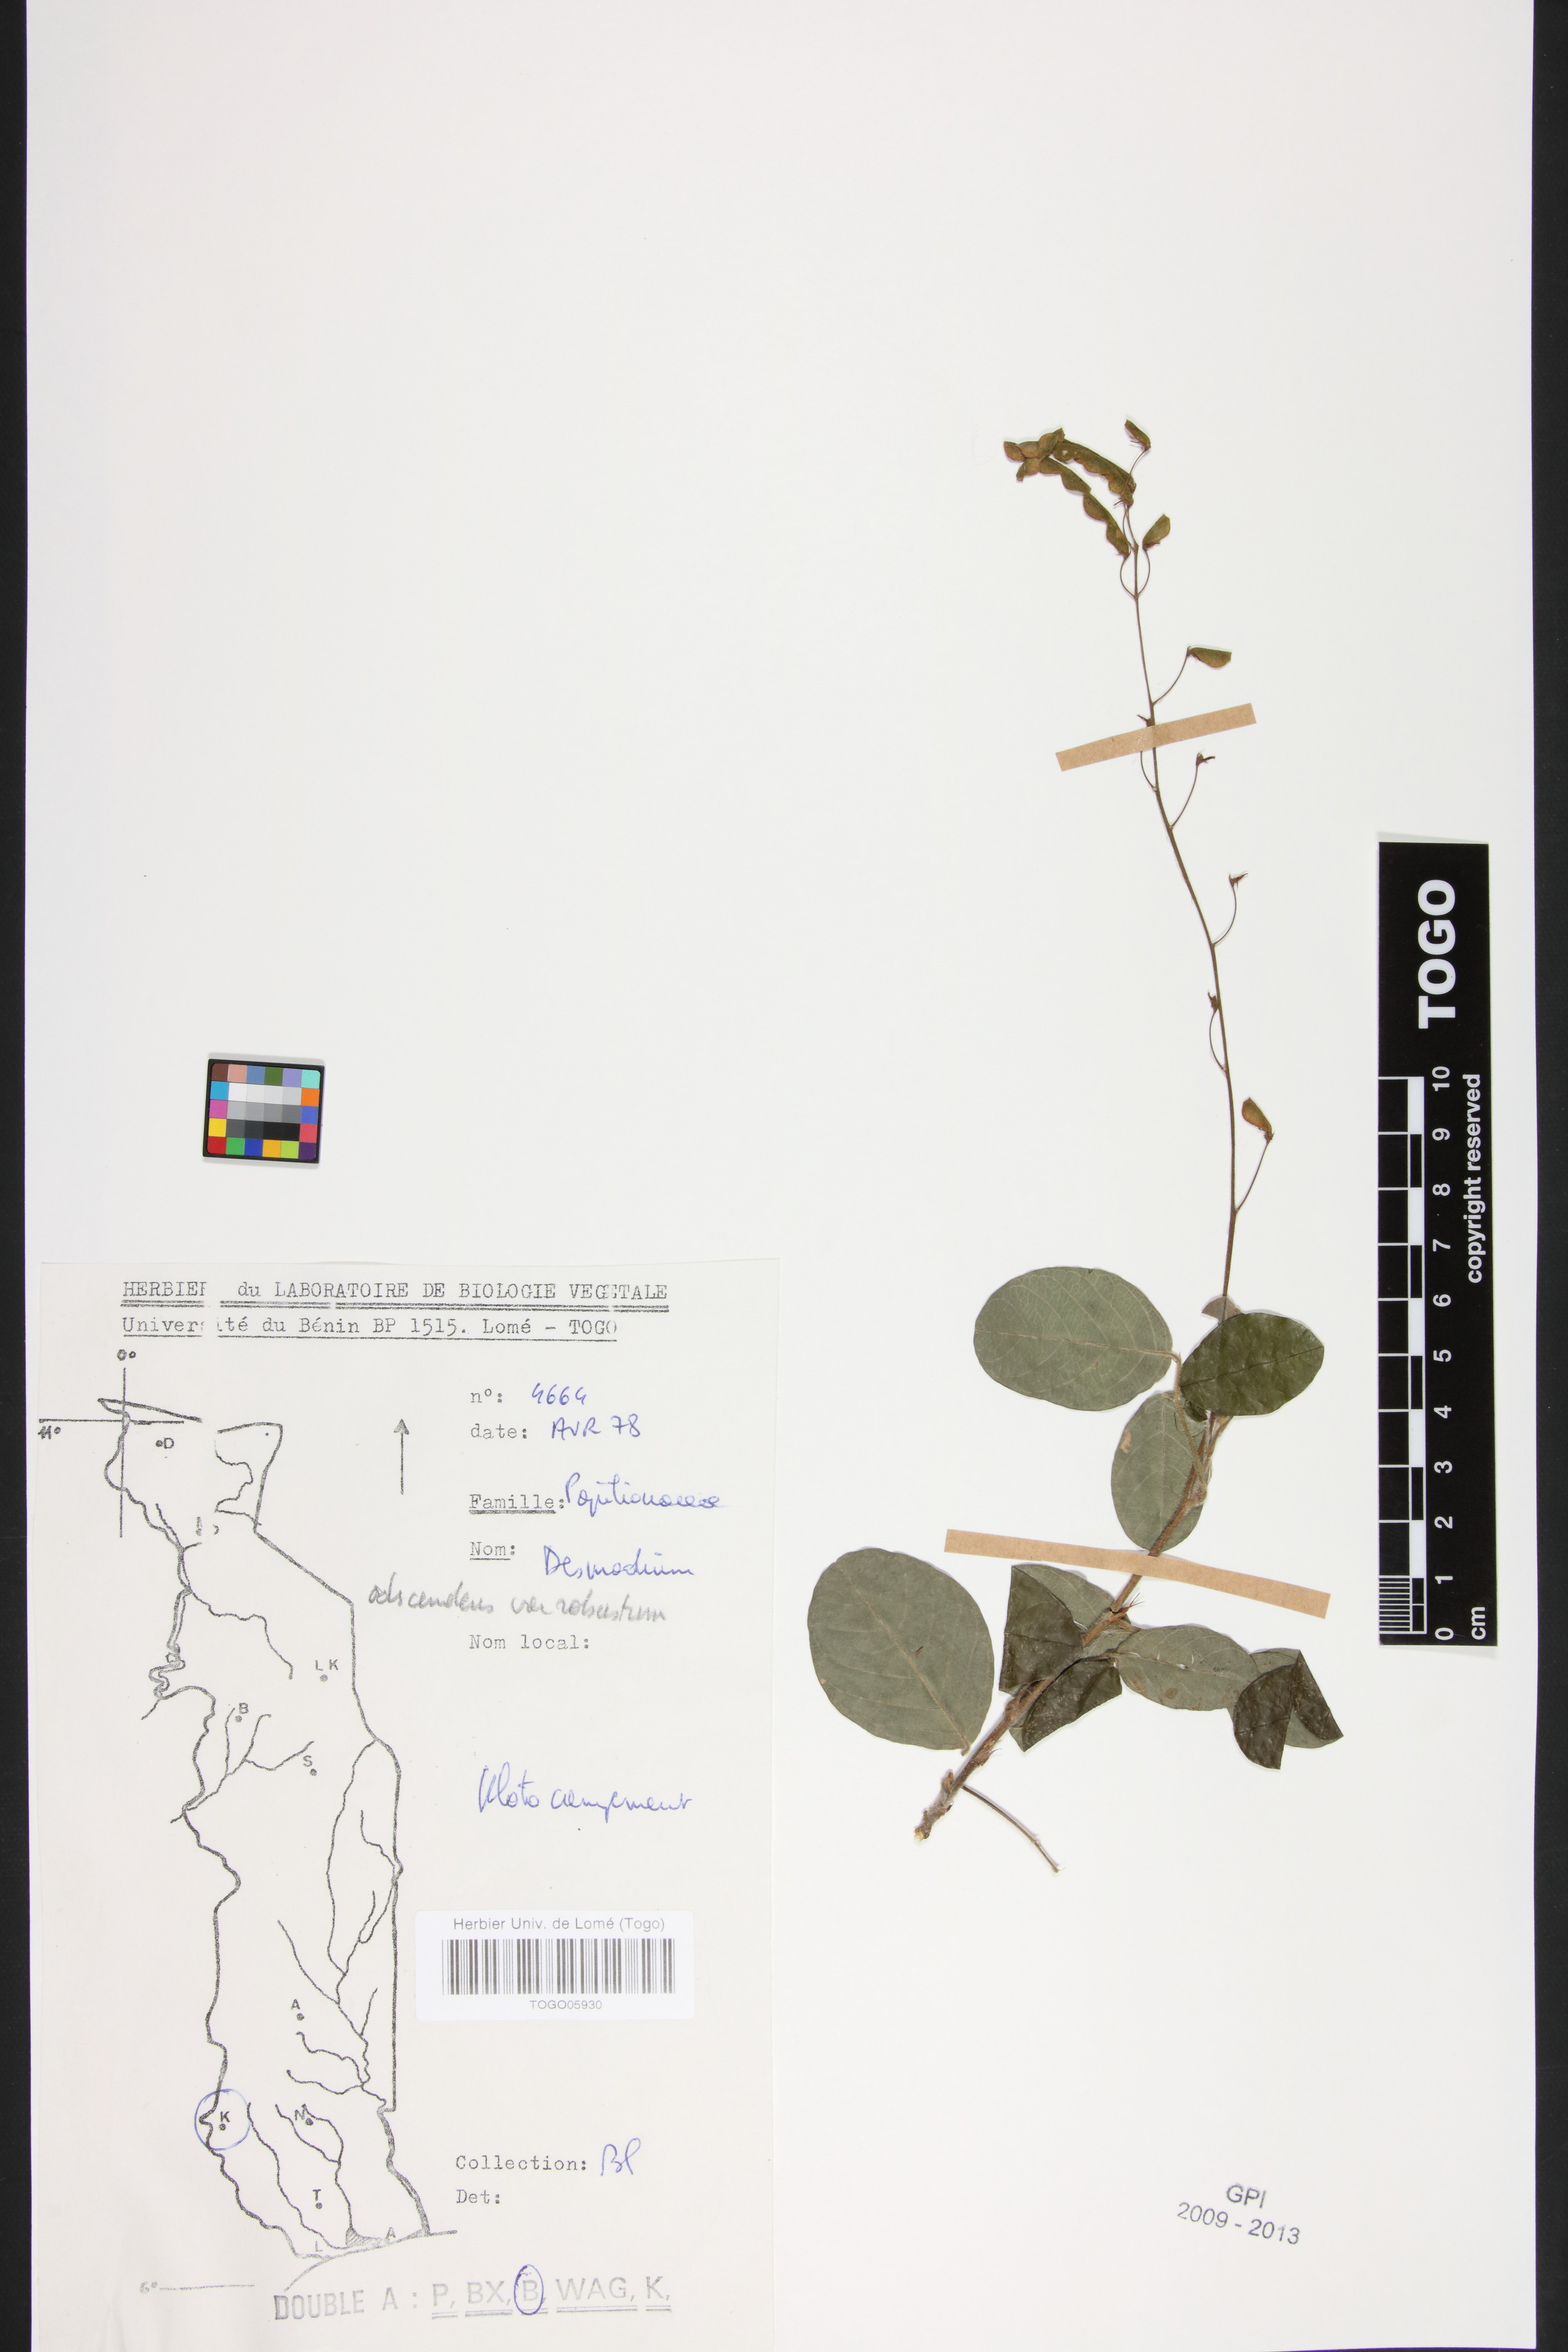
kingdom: Plantae
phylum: Tracheophyta
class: Magnoliopsida
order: Fabales
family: Fabaceae
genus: Grona
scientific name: Grona adscendens
